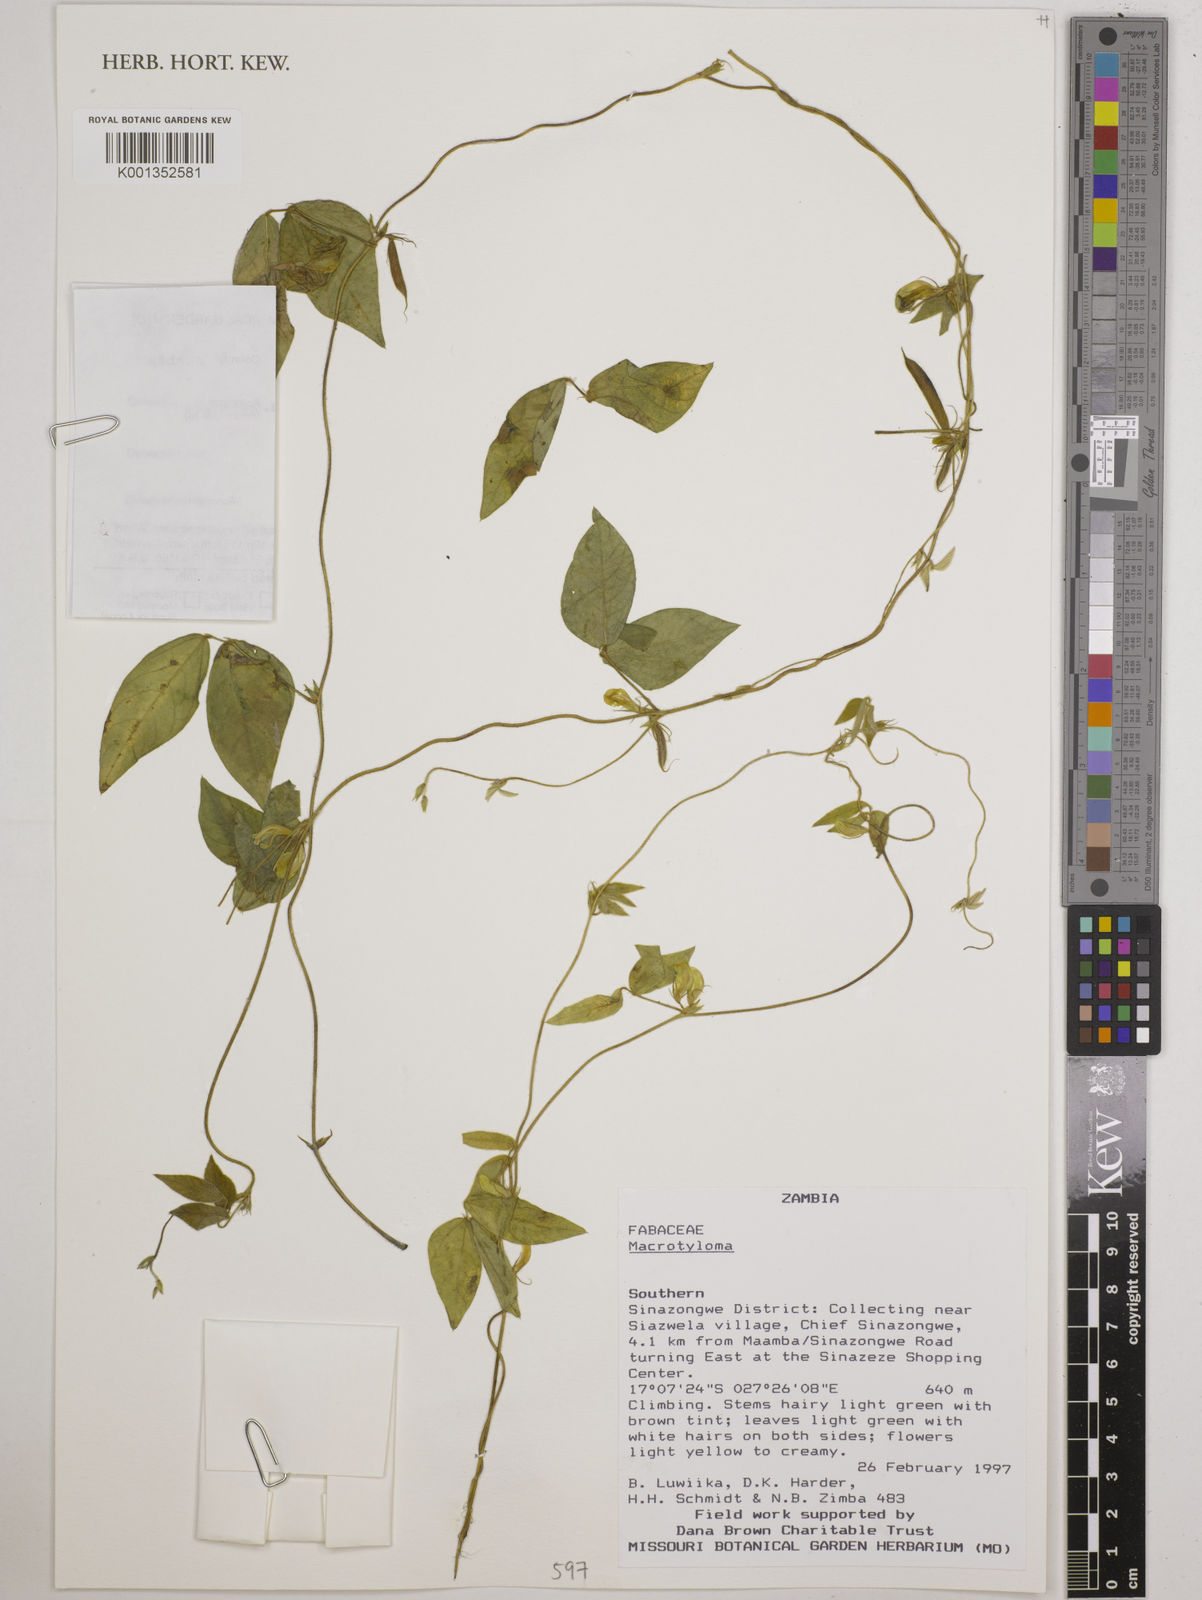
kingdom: Plantae
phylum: Tracheophyta
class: Magnoliopsida
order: Fabales
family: Fabaceae
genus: Macrotyloma
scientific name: Macrotyloma
